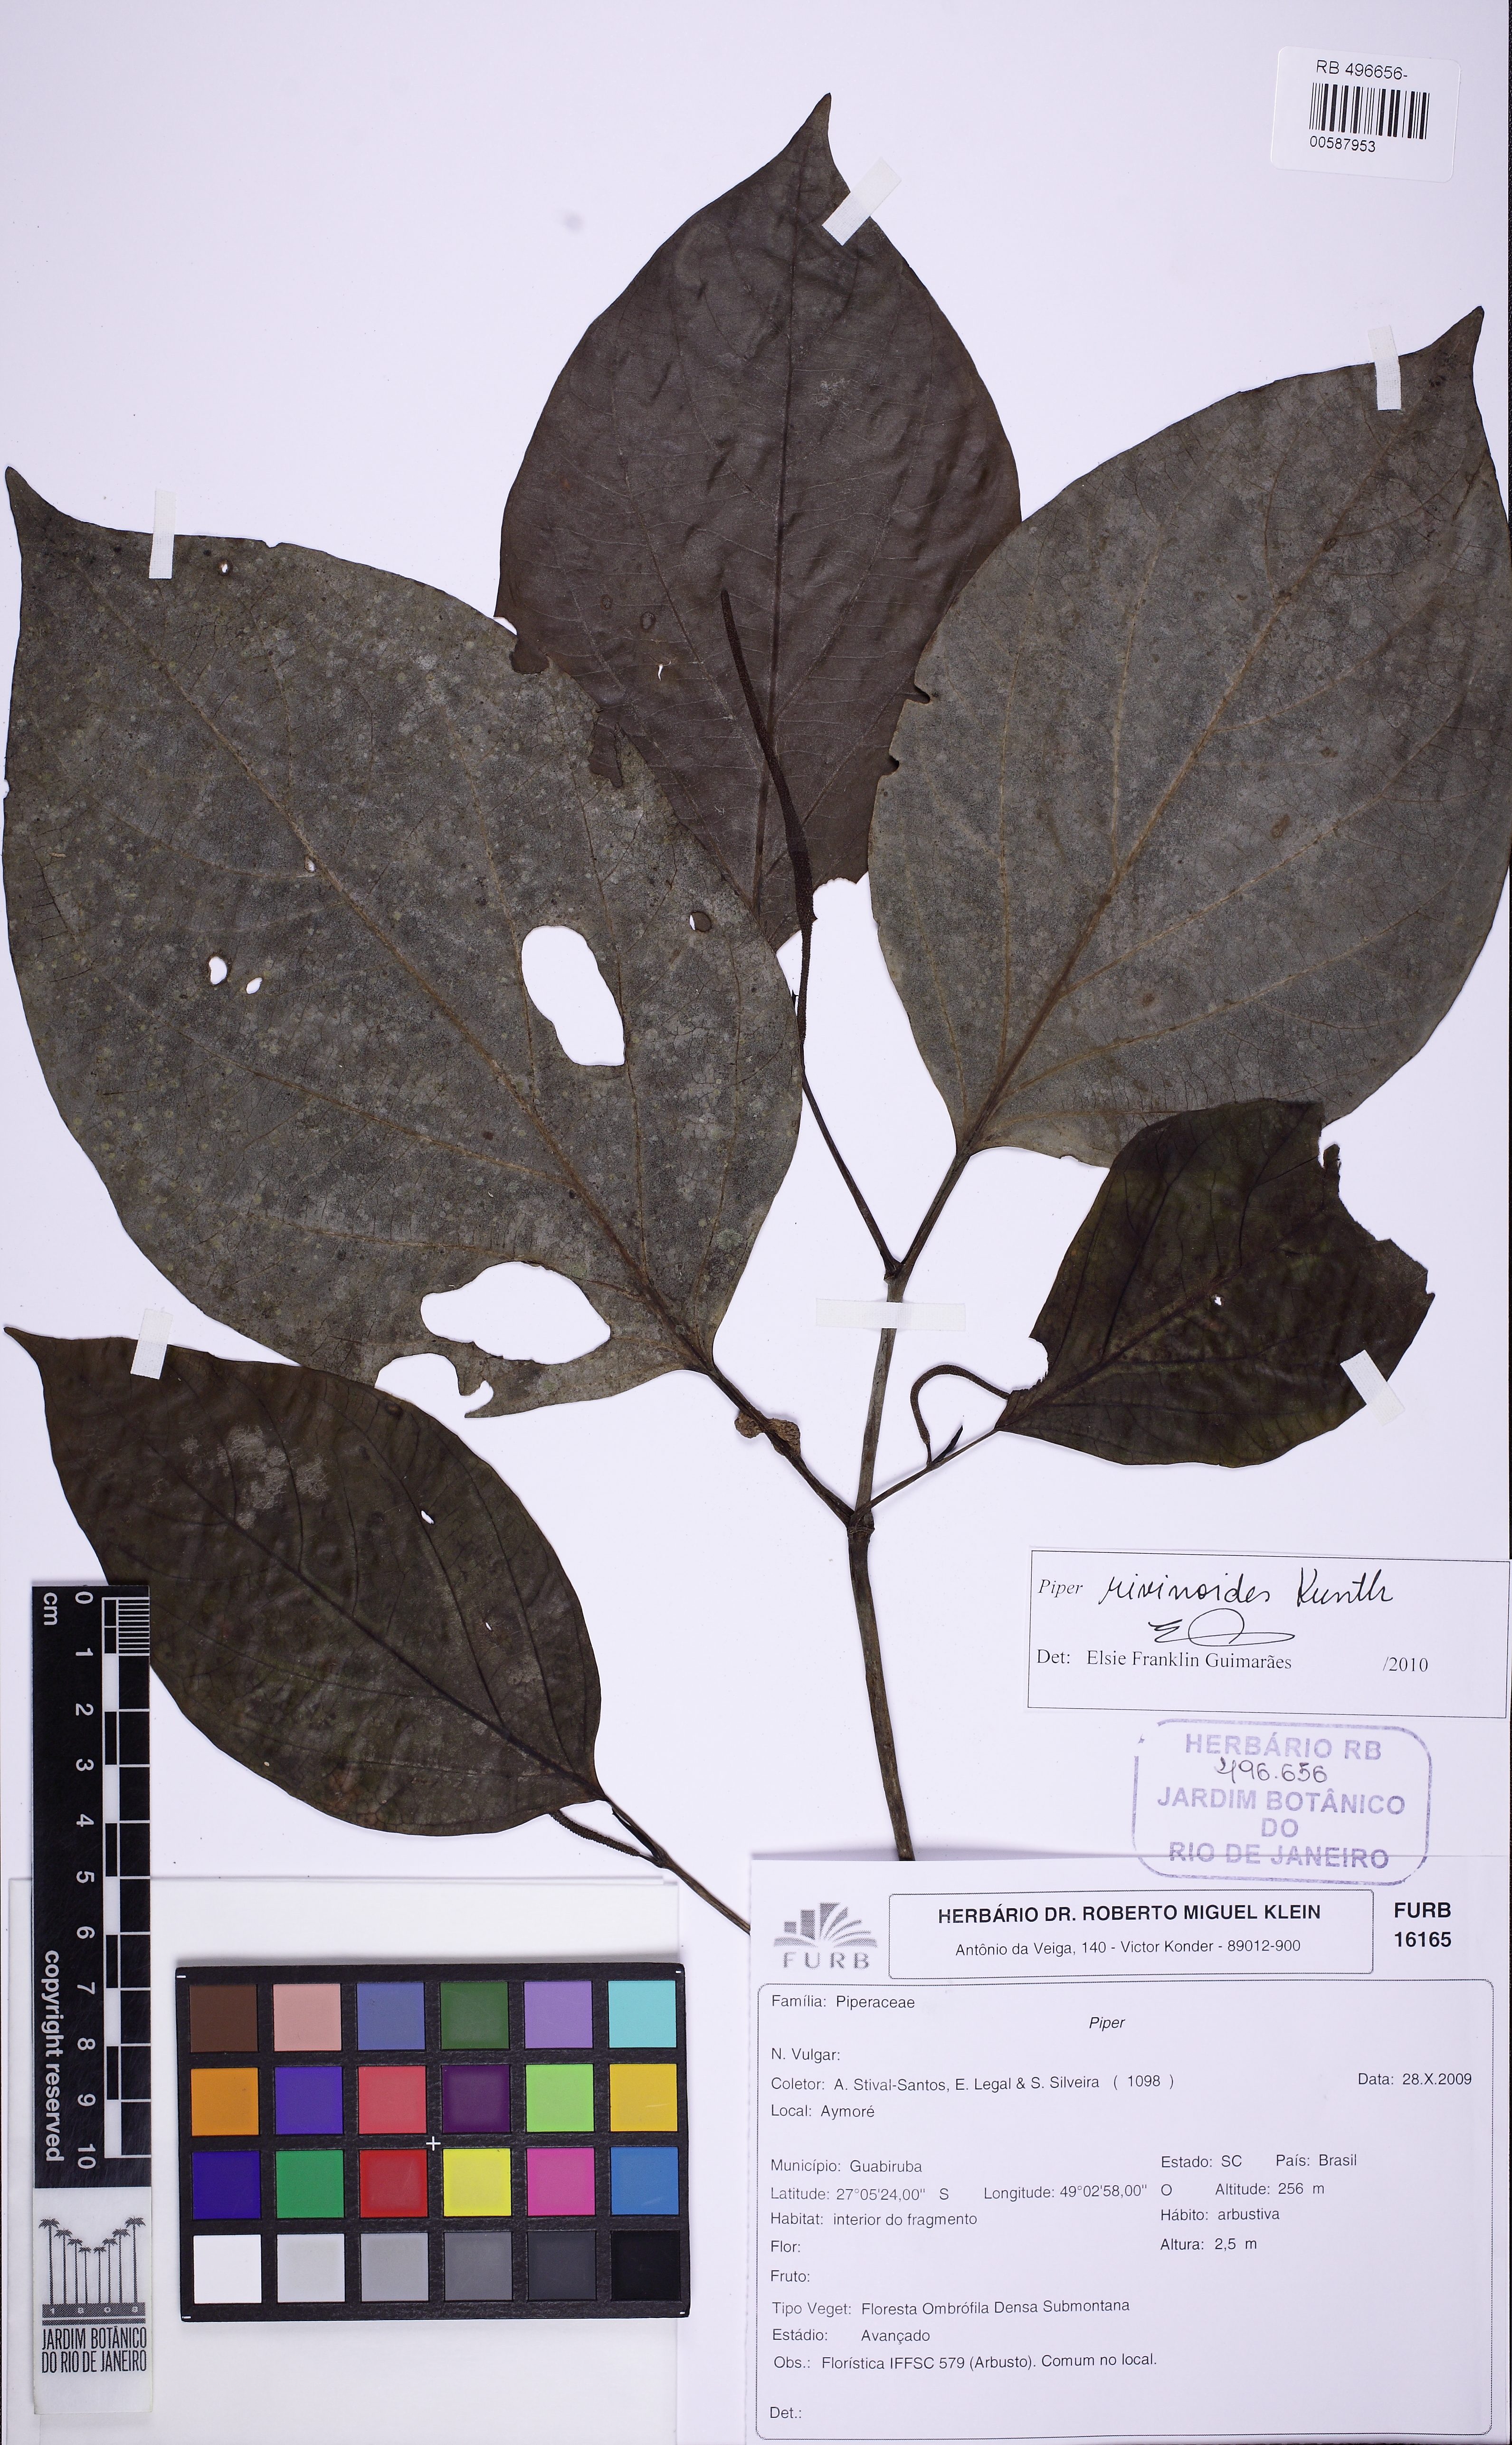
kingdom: Plantae
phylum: Tracheophyta
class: Magnoliopsida
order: Piperales
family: Piperaceae
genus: Piper
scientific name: Piper rivinoides
